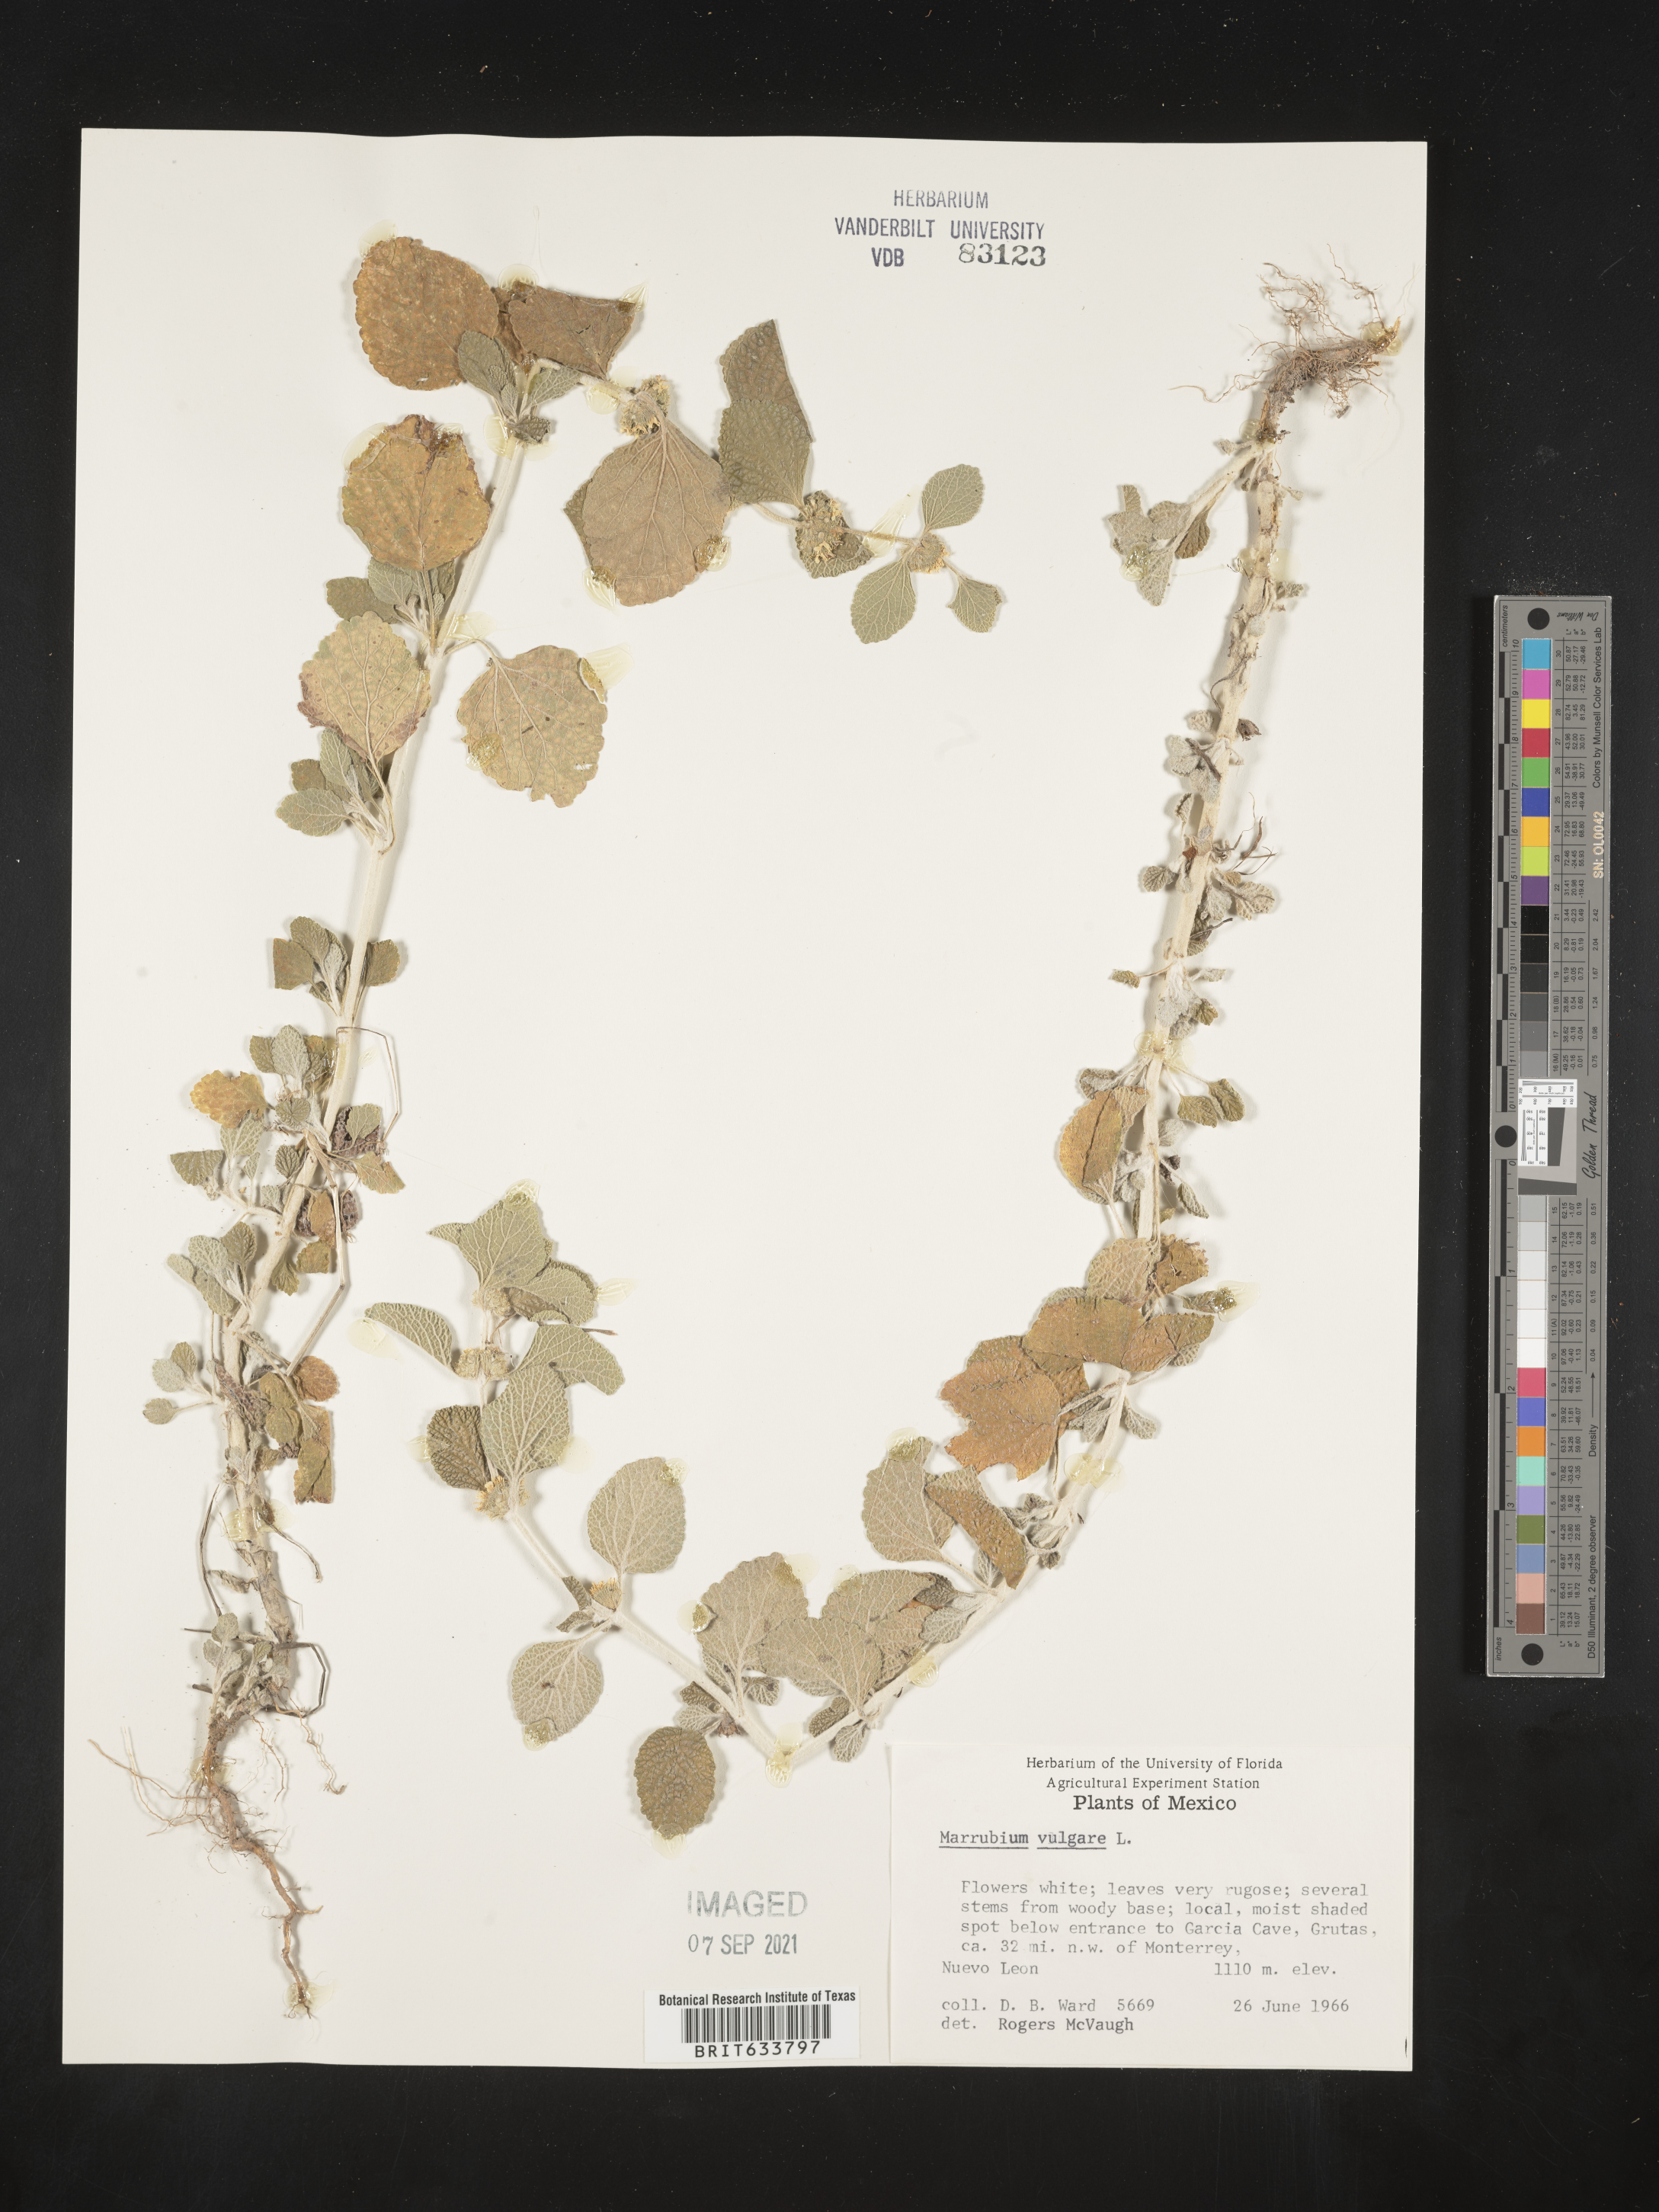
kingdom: Plantae
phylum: Tracheophyta
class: Magnoliopsida
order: Lamiales
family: Lamiaceae
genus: Marrubium
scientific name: Marrubium
